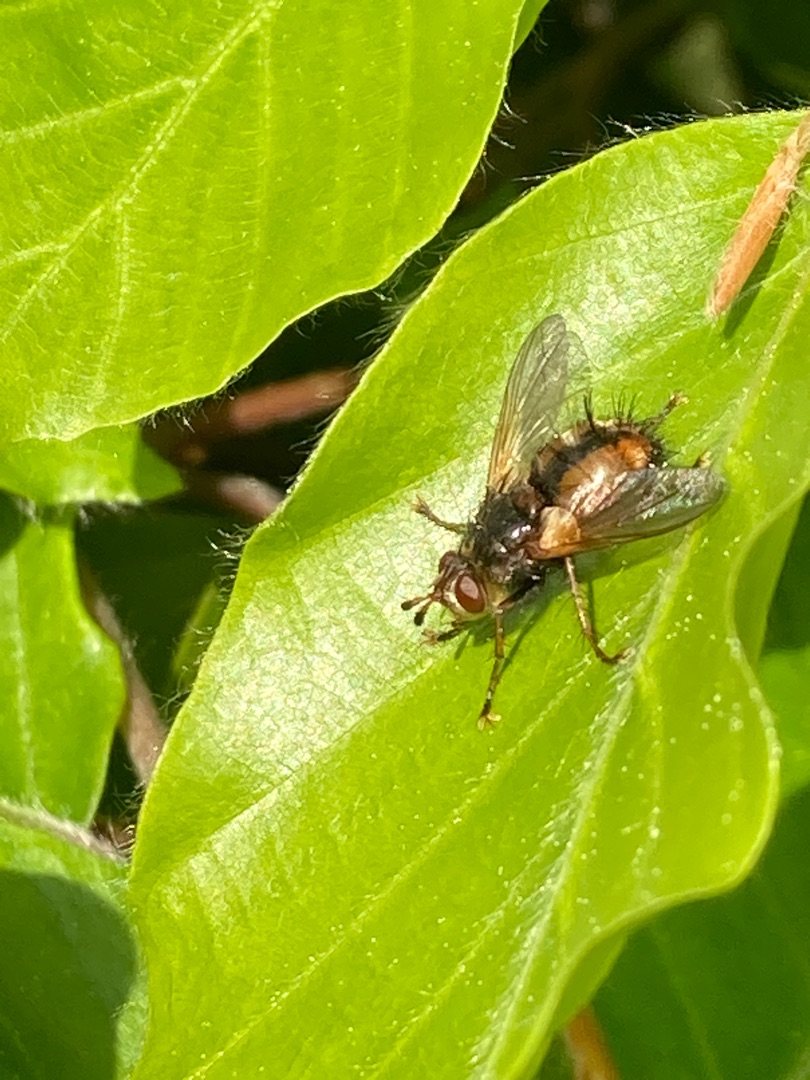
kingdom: Animalia
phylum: Arthropoda
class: Insecta
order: Diptera
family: Tachinidae
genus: Tachina
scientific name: Tachina fera
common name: Mellemfluen oskar
